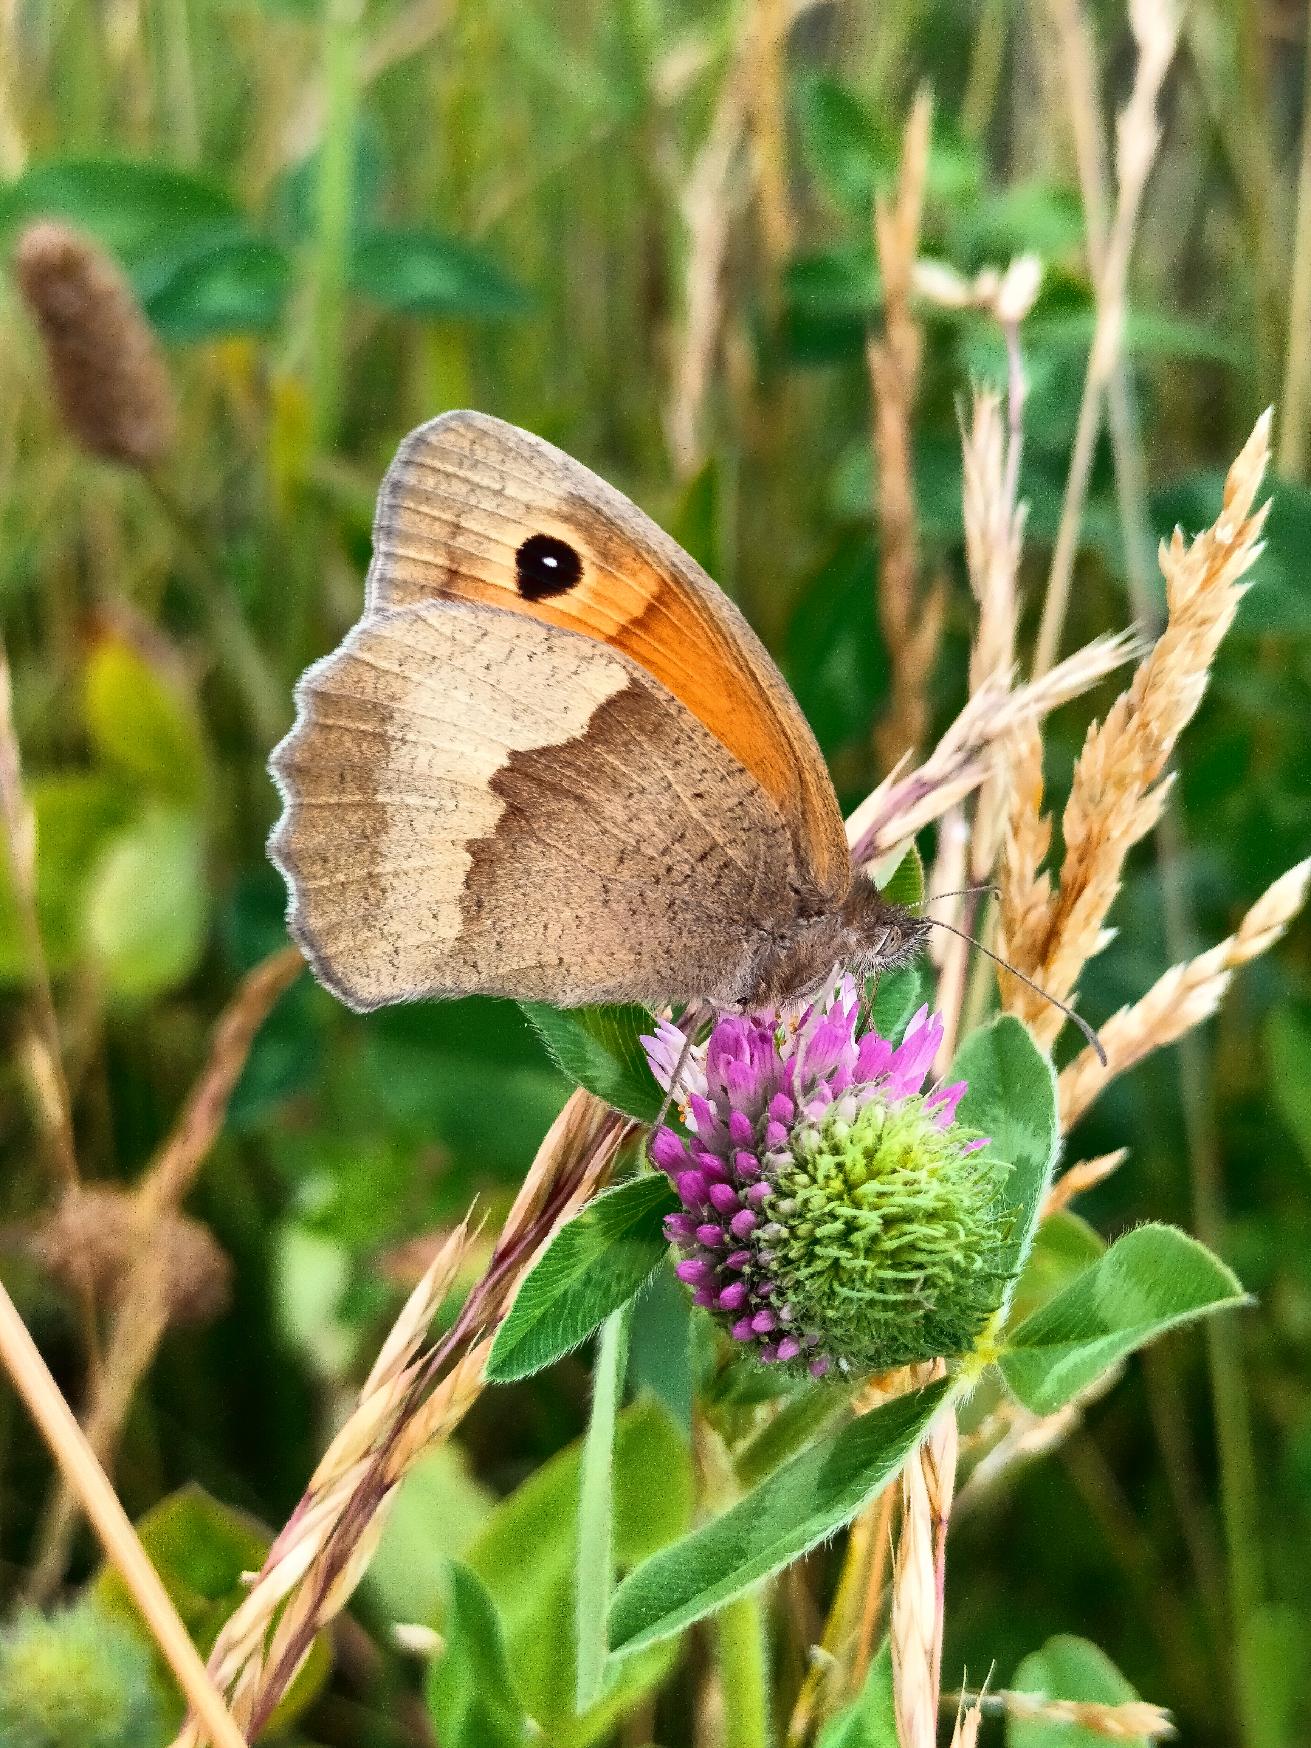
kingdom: Animalia
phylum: Arthropoda
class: Insecta
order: Lepidoptera
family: Nymphalidae
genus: Maniola
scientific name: Maniola jurtina
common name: Græsrandøje
